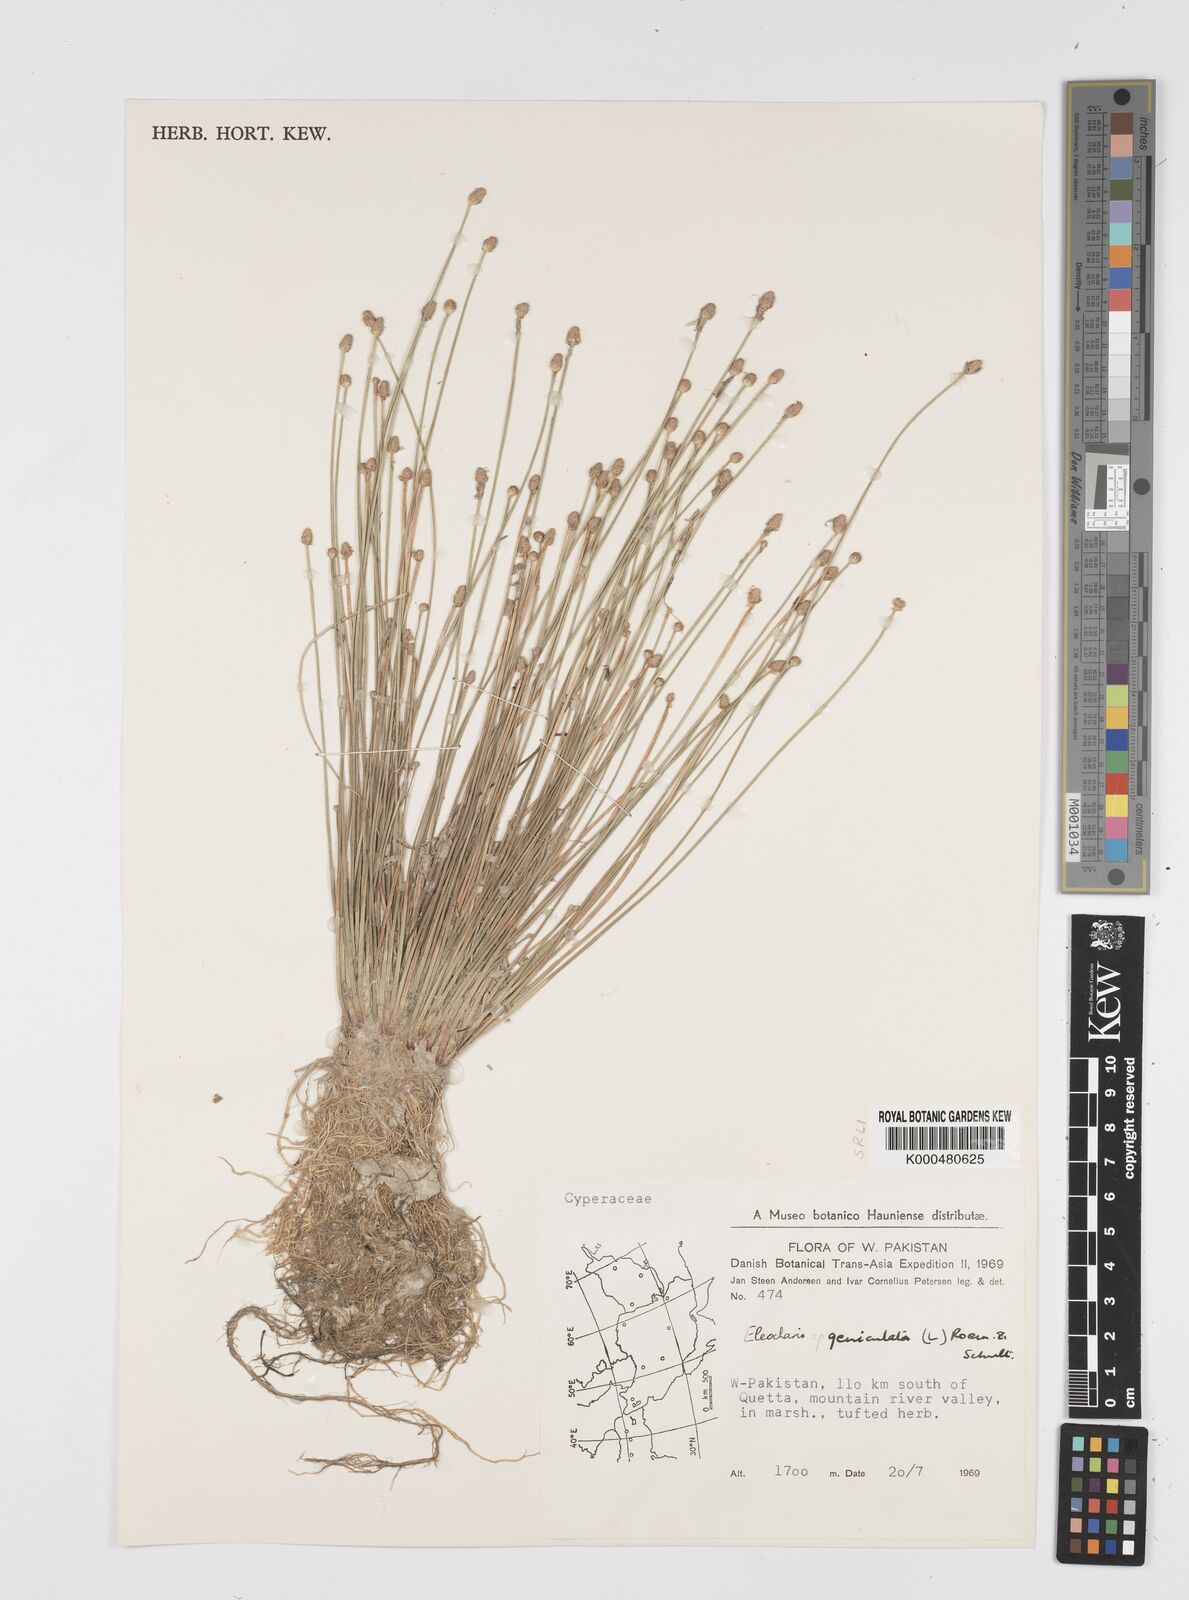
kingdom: Plantae
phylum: Tracheophyta
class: Liliopsida
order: Poales
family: Cyperaceae
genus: Eleocharis
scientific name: Eleocharis geniculata
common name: Canada spikesedge
